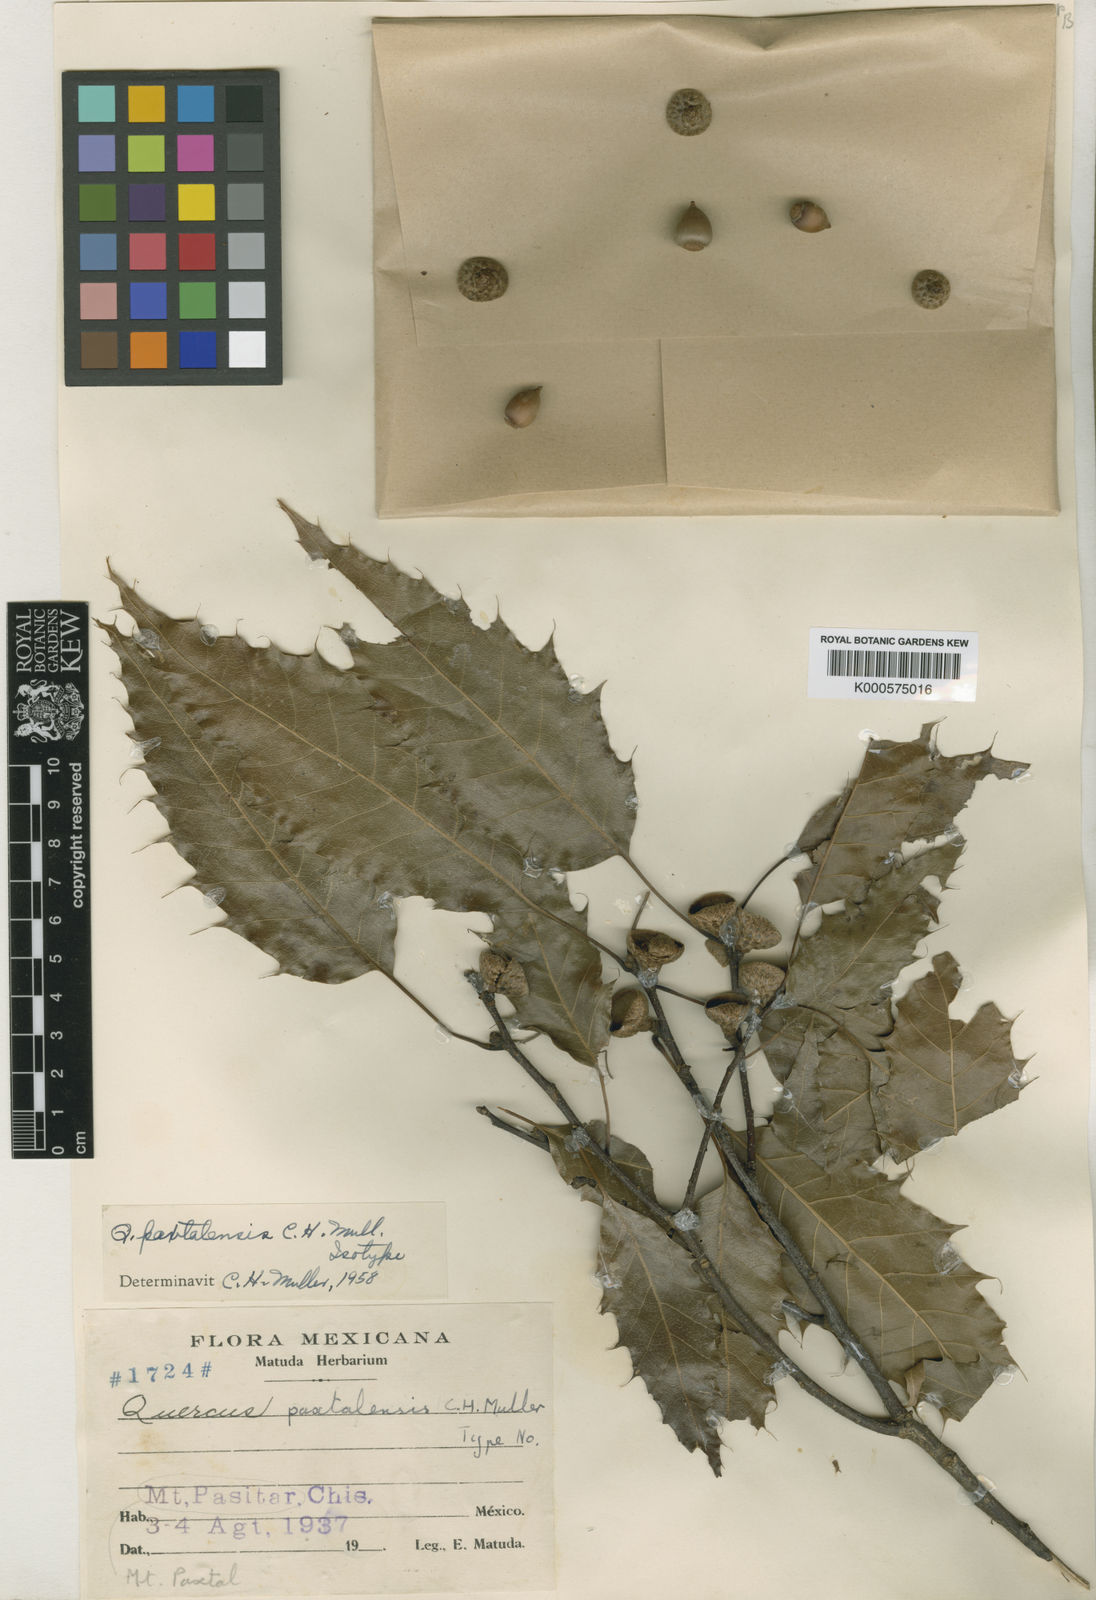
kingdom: Plantae
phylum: Tracheophyta
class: Magnoliopsida
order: Fagales
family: Fagaceae
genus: Quercus
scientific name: Quercus paxtalensis
